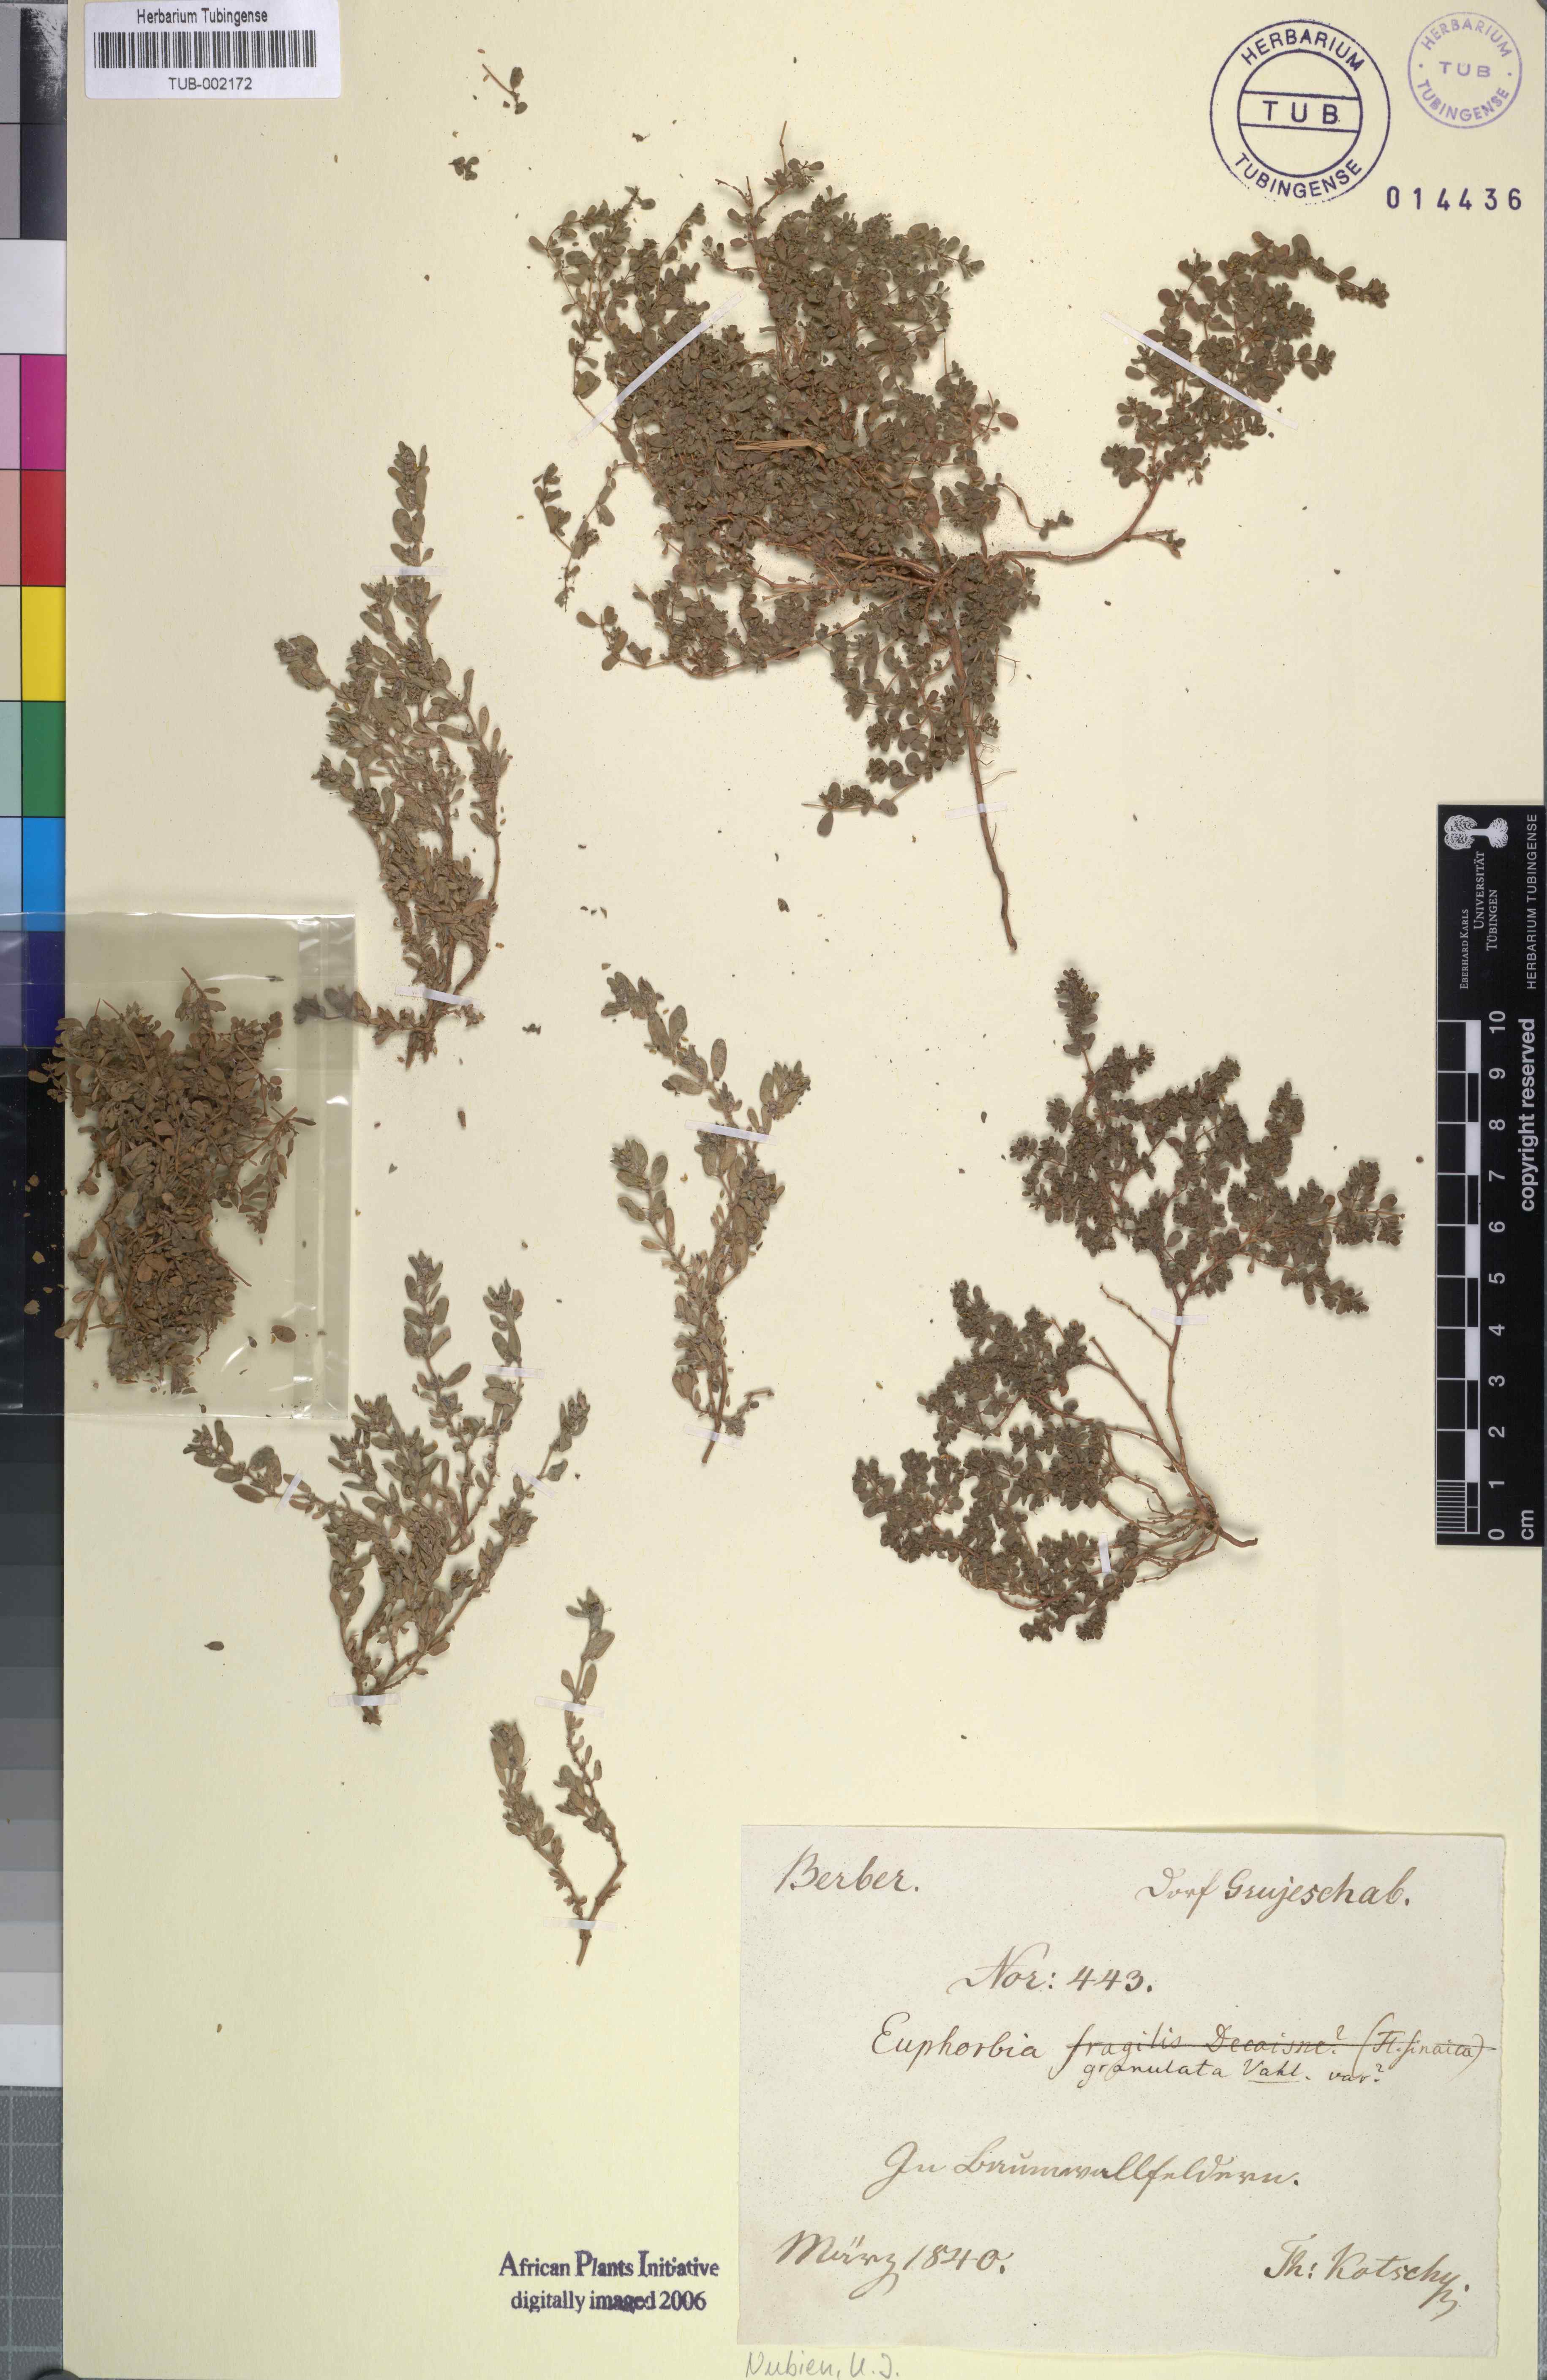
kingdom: Plantae
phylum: Tracheophyta
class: Magnoliopsida
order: Malpighiales
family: Euphorbiaceae
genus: Euphorbia
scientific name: Euphorbia forsskalii
